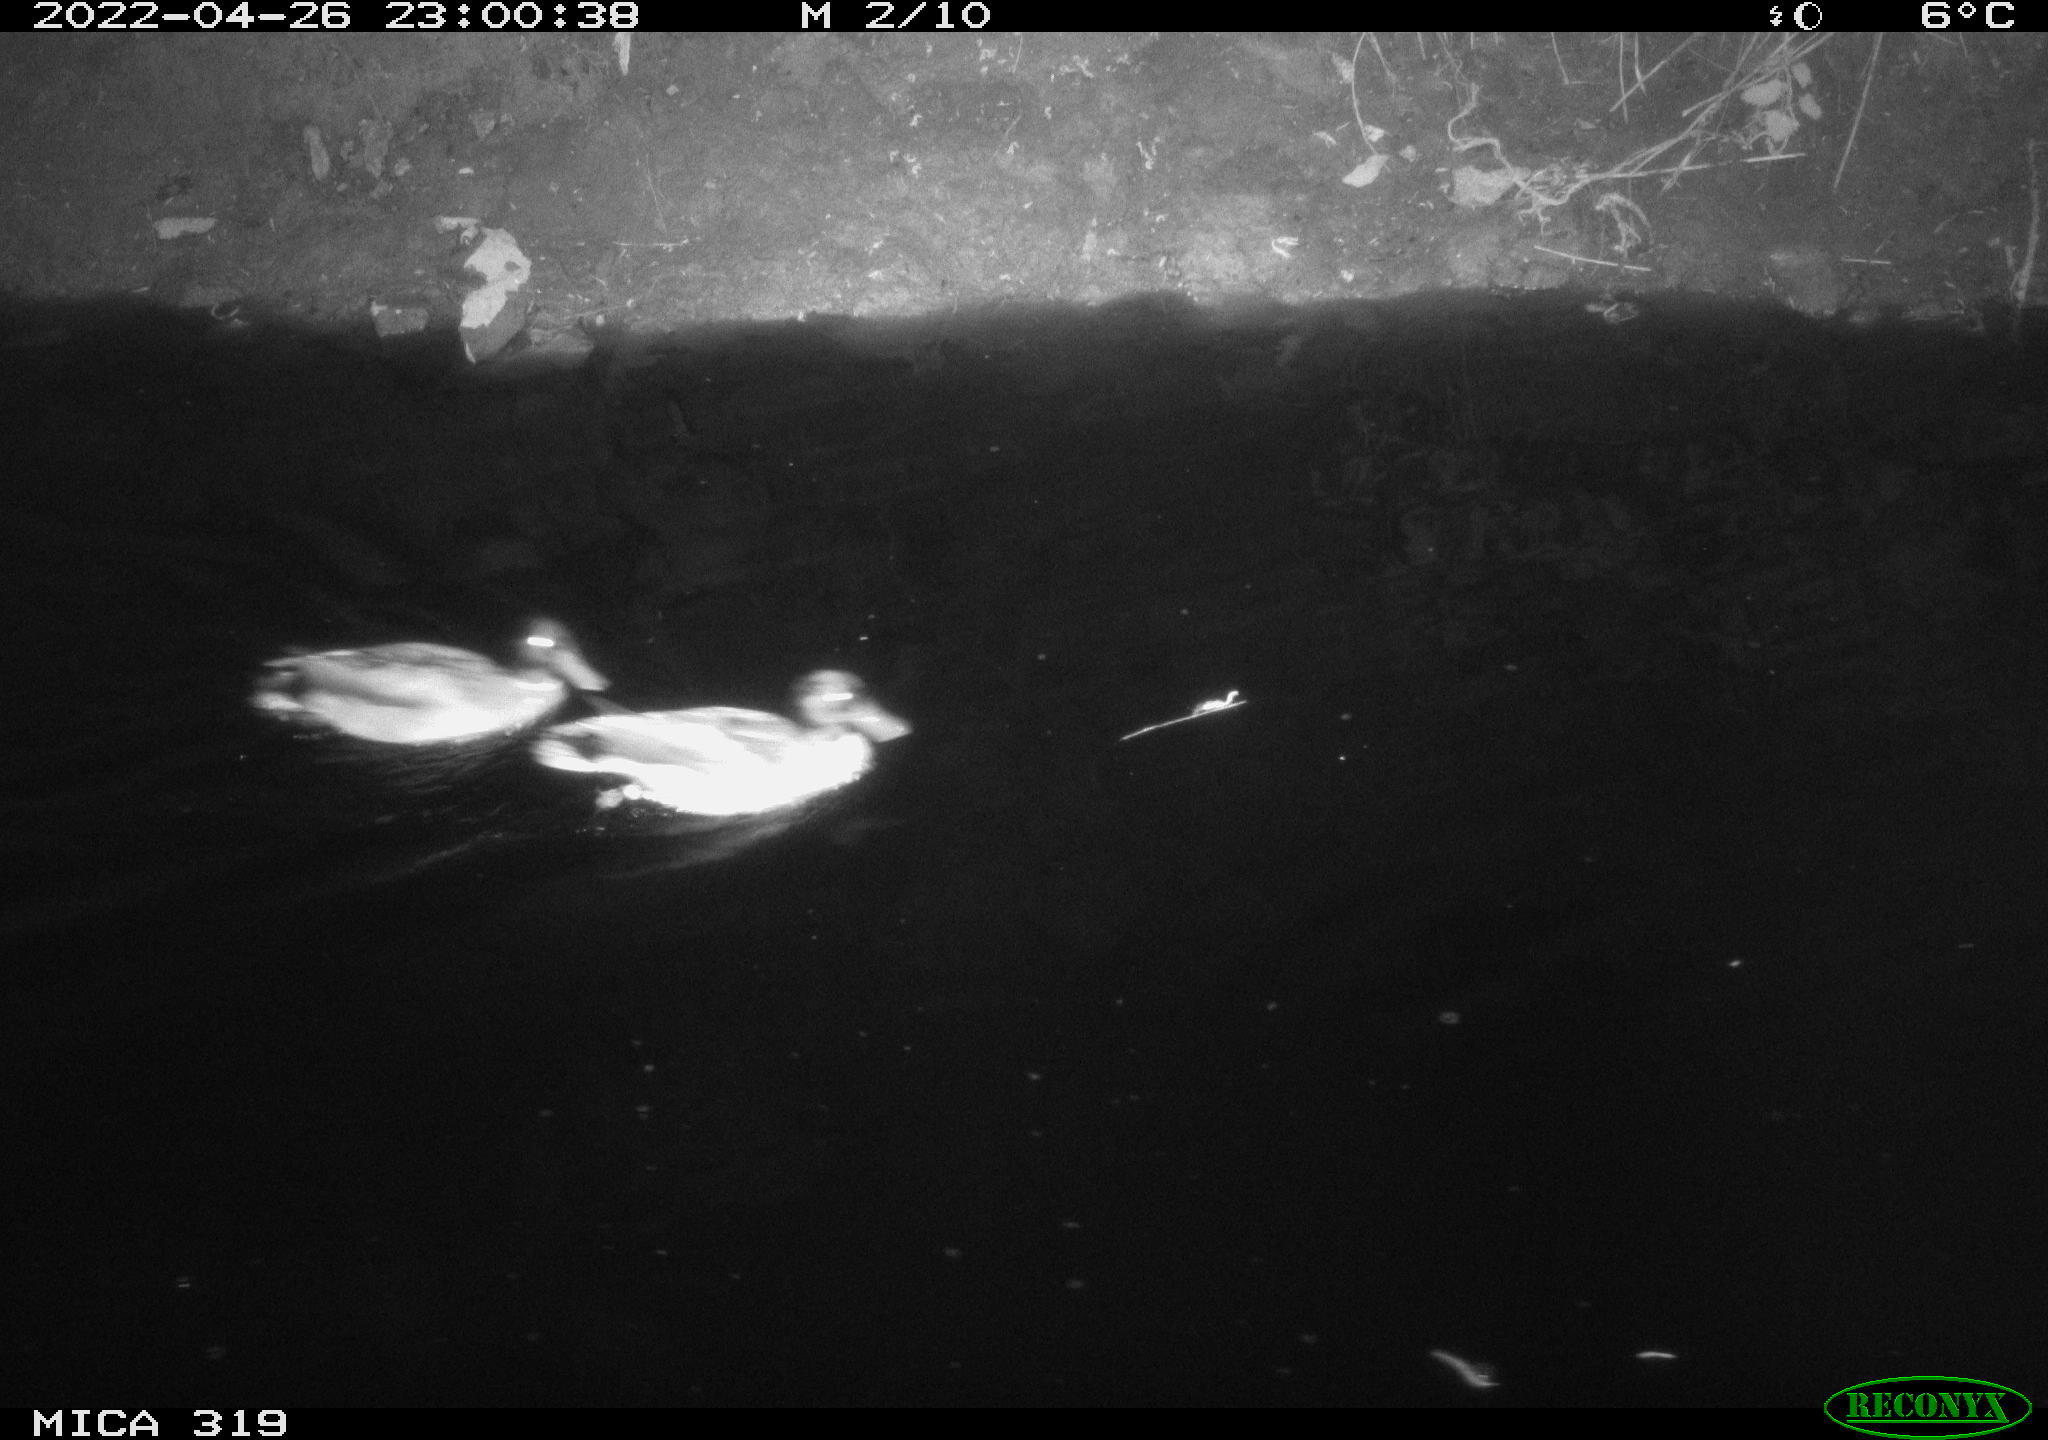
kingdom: Animalia
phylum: Chordata
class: Aves
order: Anseriformes
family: Anatidae
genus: Anas
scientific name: Anas platyrhynchos
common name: Mallard
